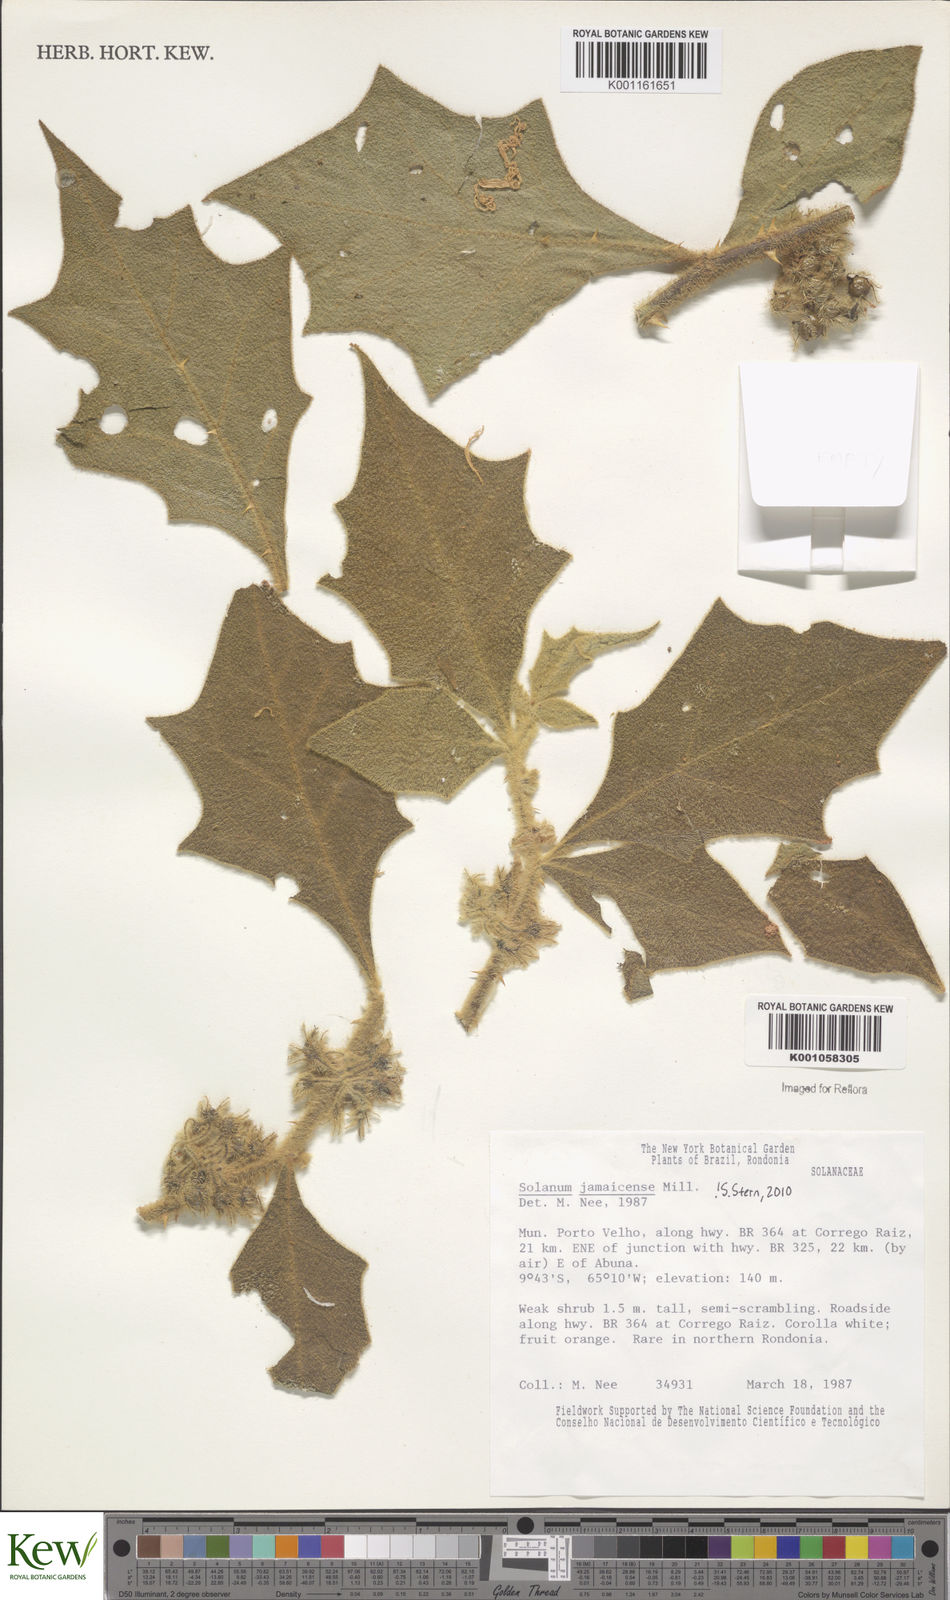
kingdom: Plantae
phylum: Tracheophyta
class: Magnoliopsida
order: Solanales
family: Solanaceae
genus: Solanum
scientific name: Solanum jamaicense
